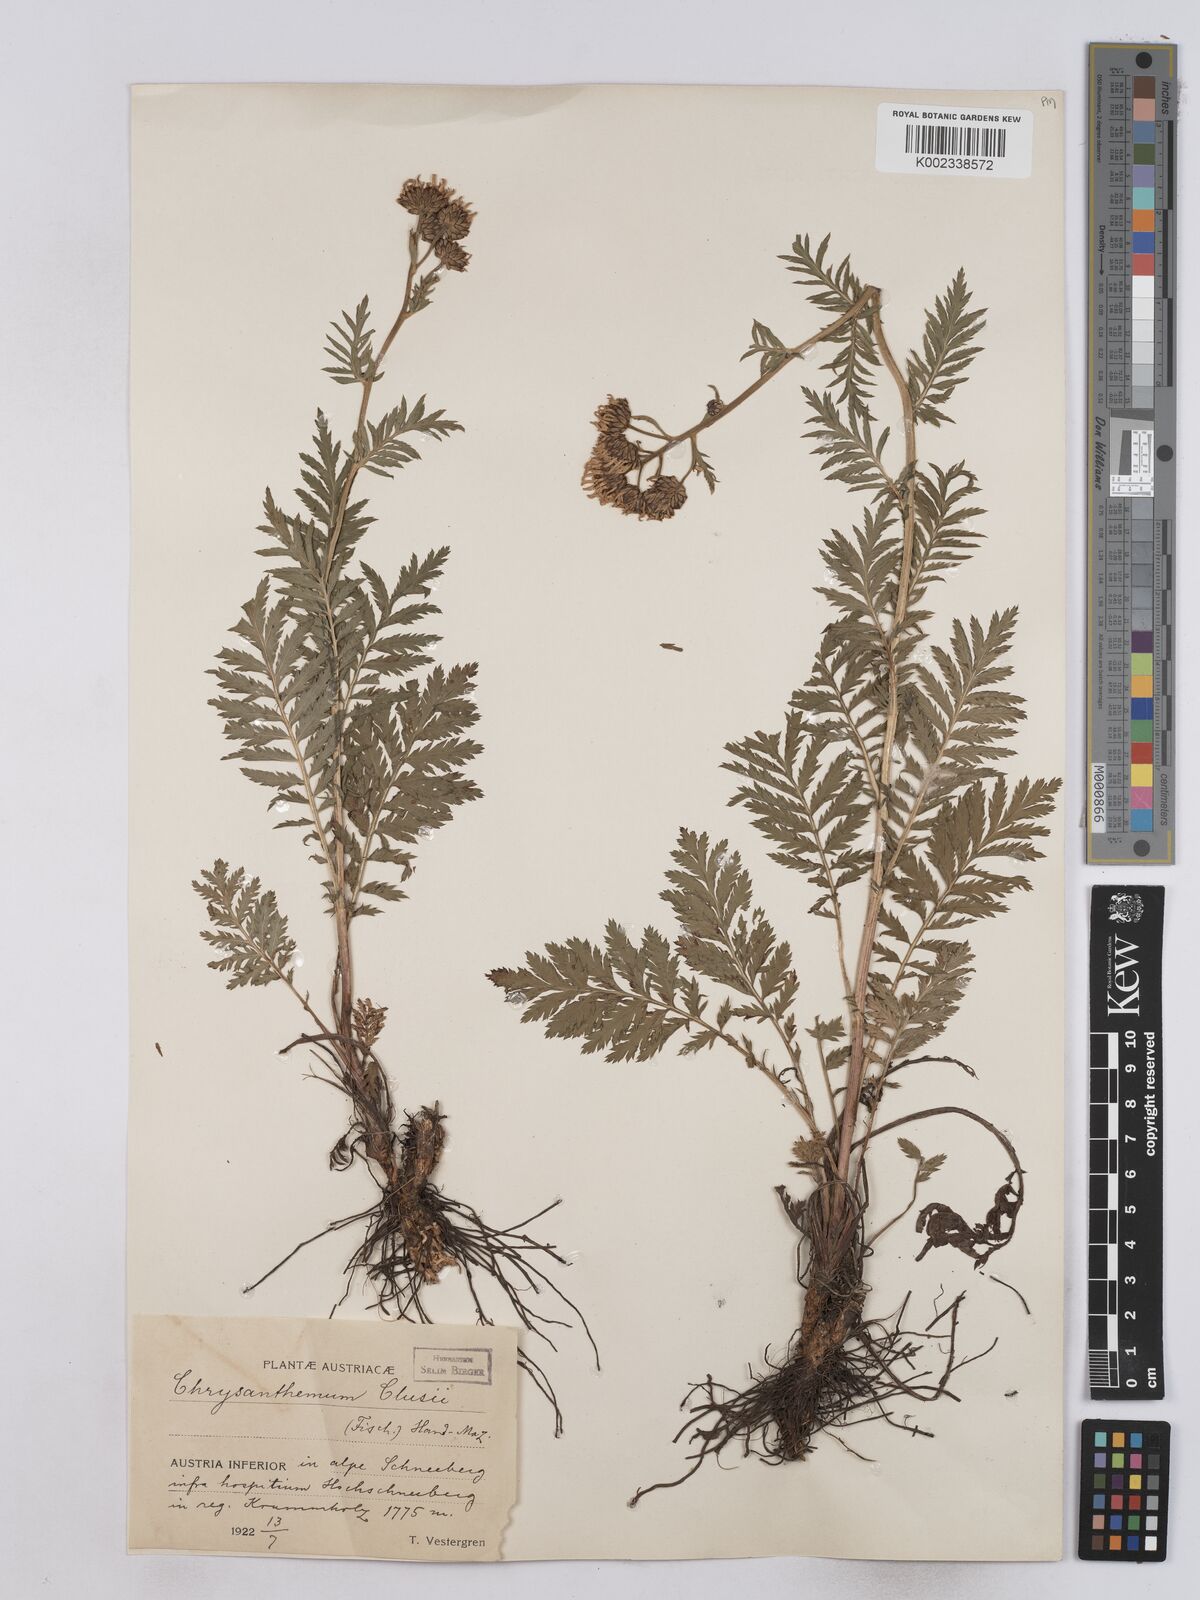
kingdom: Plantae
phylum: Tracheophyta
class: Magnoliopsida
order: Asterales
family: Asteraceae
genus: Tanacetum
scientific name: Tanacetum corymbosum
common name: Scentless feverfew
